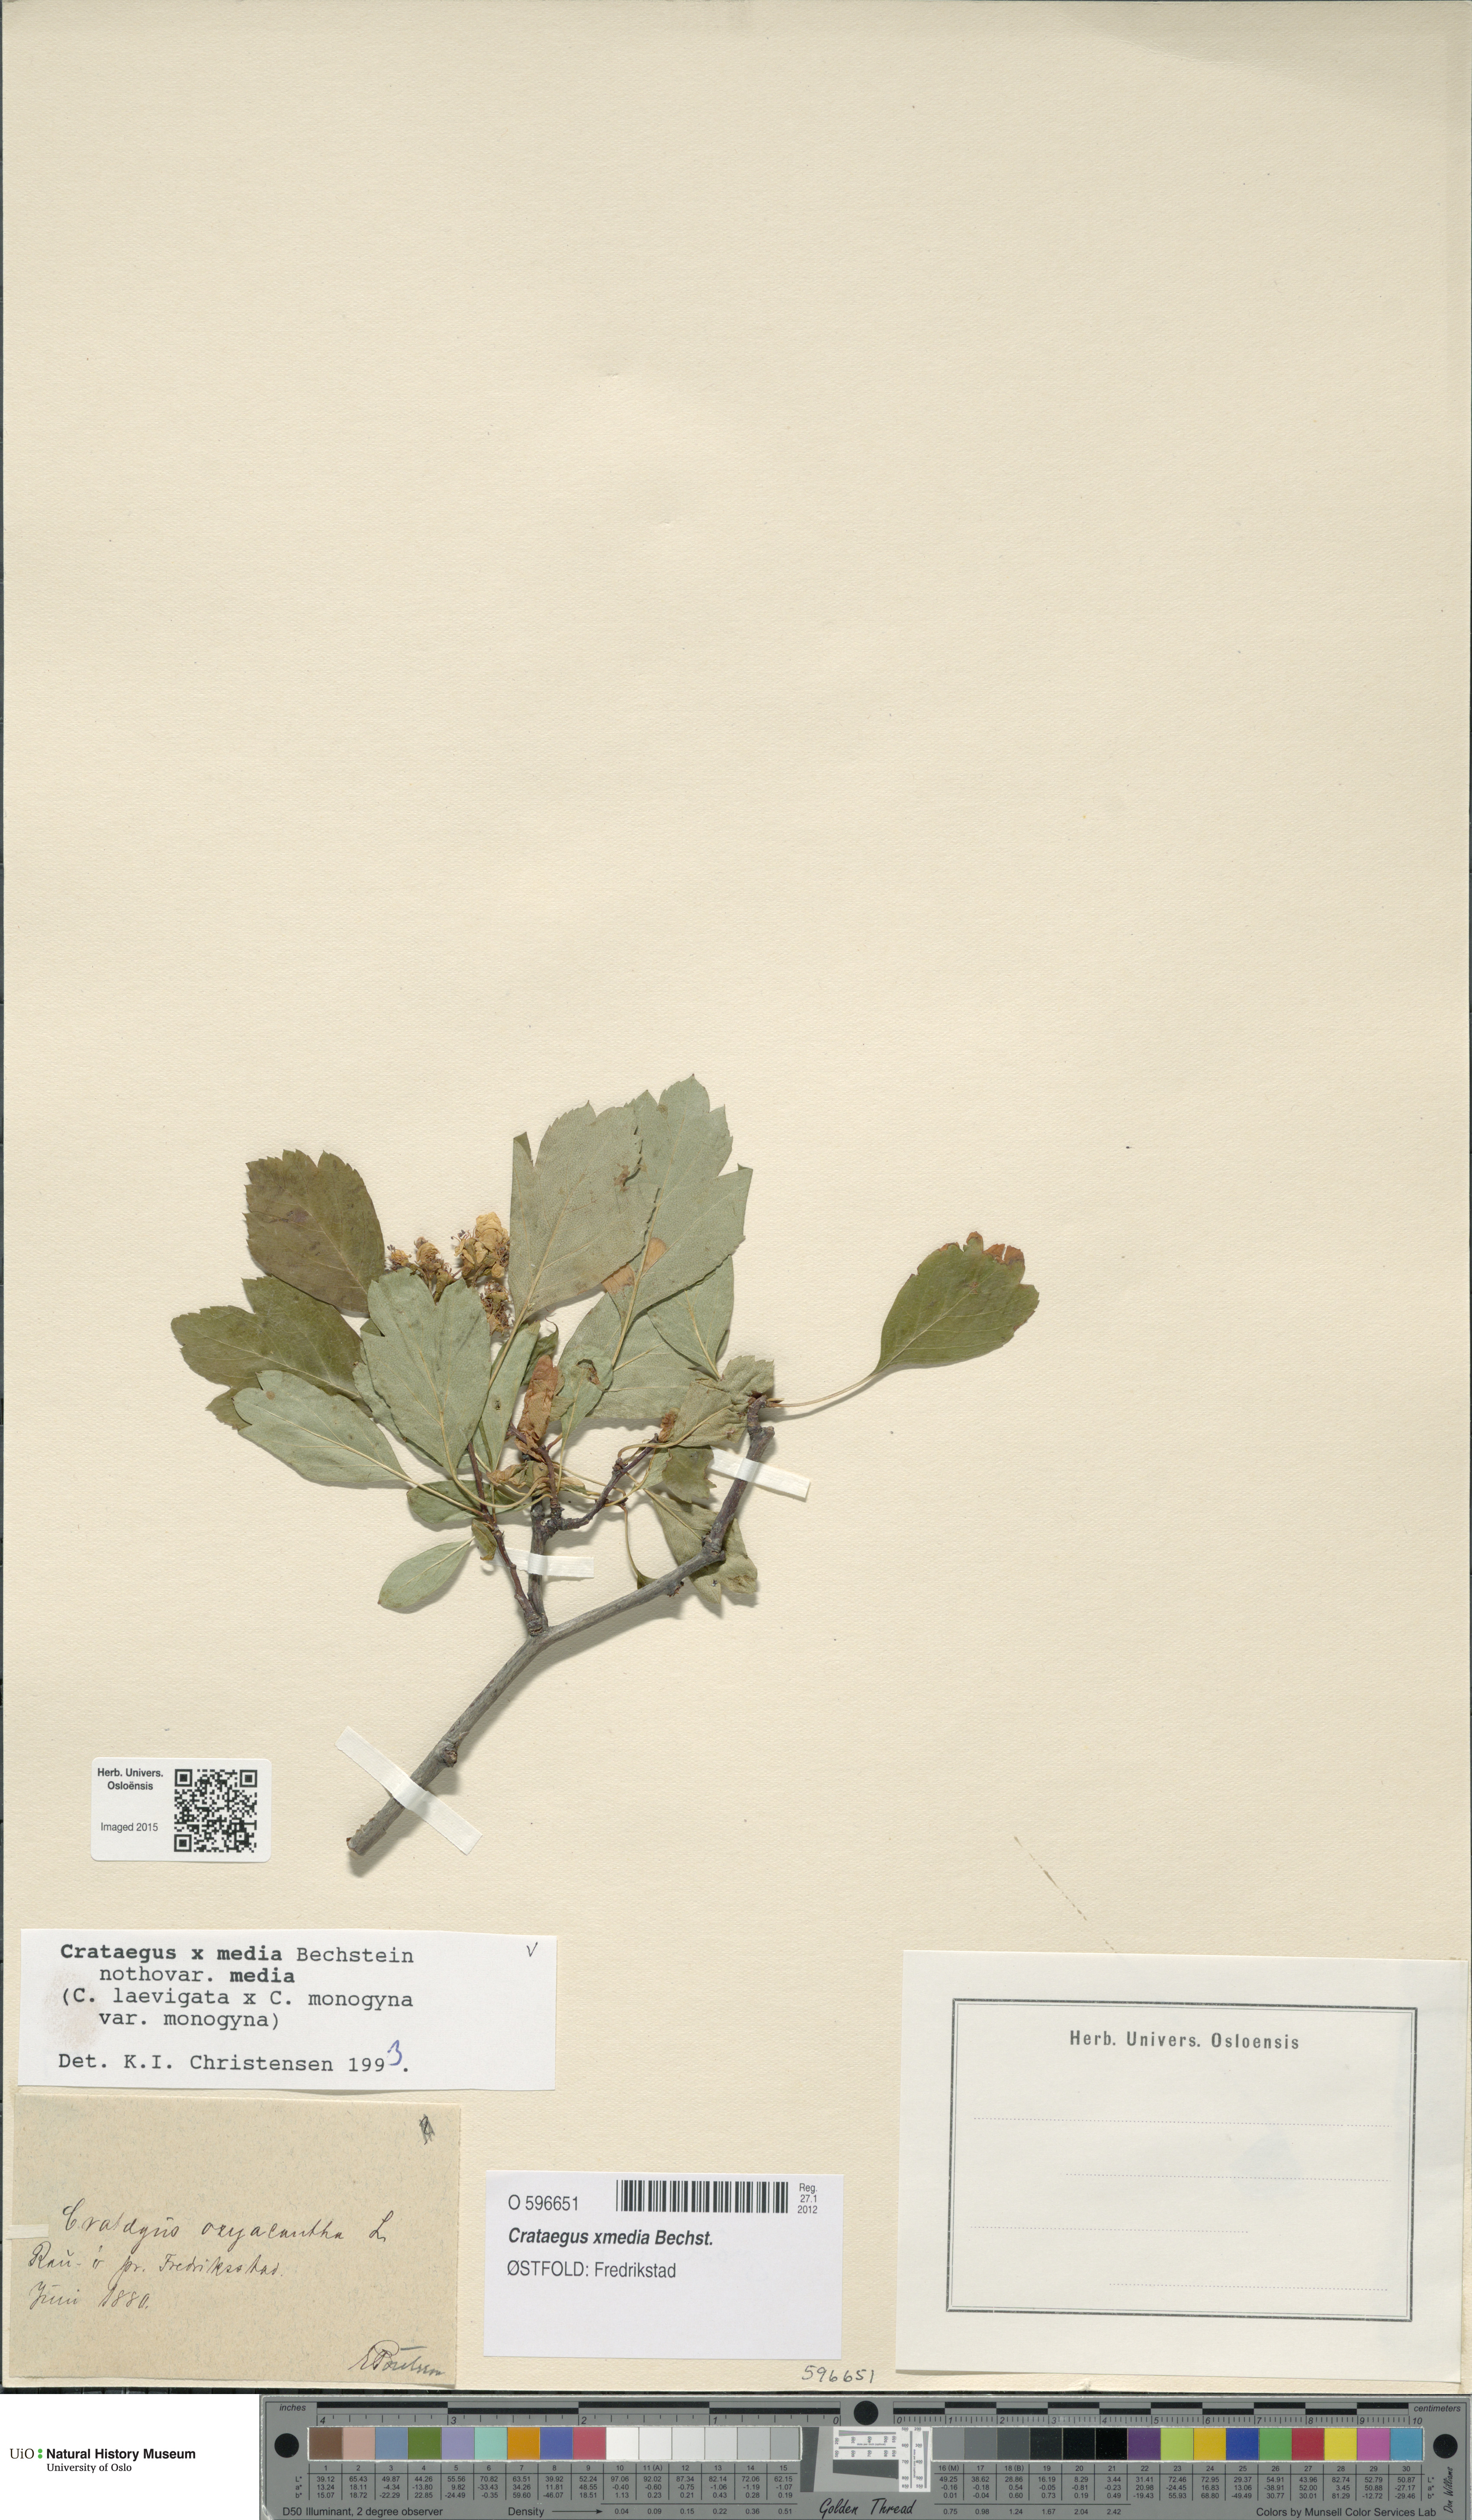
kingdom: Plantae
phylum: Tracheophyta
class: Magnoliopsida
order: Rosales
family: Rosaceae
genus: Crataegus
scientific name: Crataegus media
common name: Intermediate hawthorn
